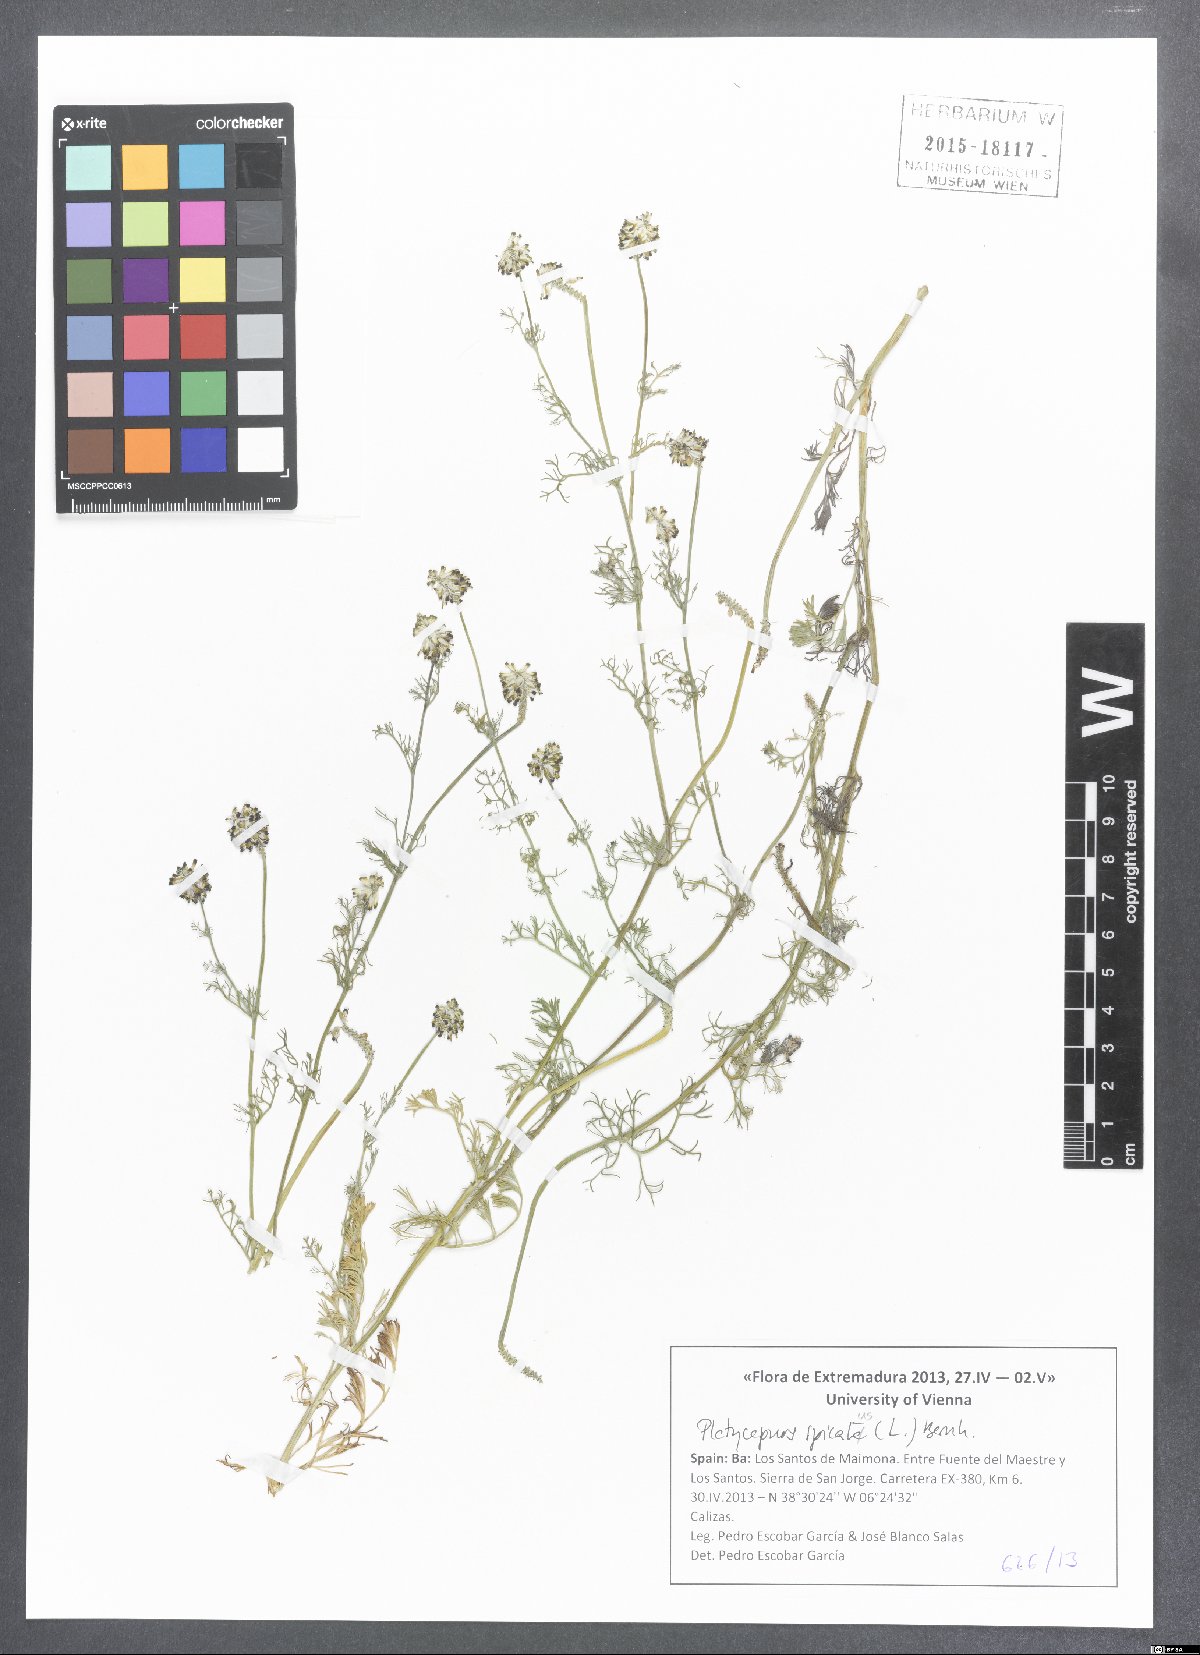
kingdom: Plantae
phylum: Tracheophyta
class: Magnoliopsida
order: Ranunculales
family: Papaveraceae
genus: Platycapnos
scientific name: Platycapnos spicata
